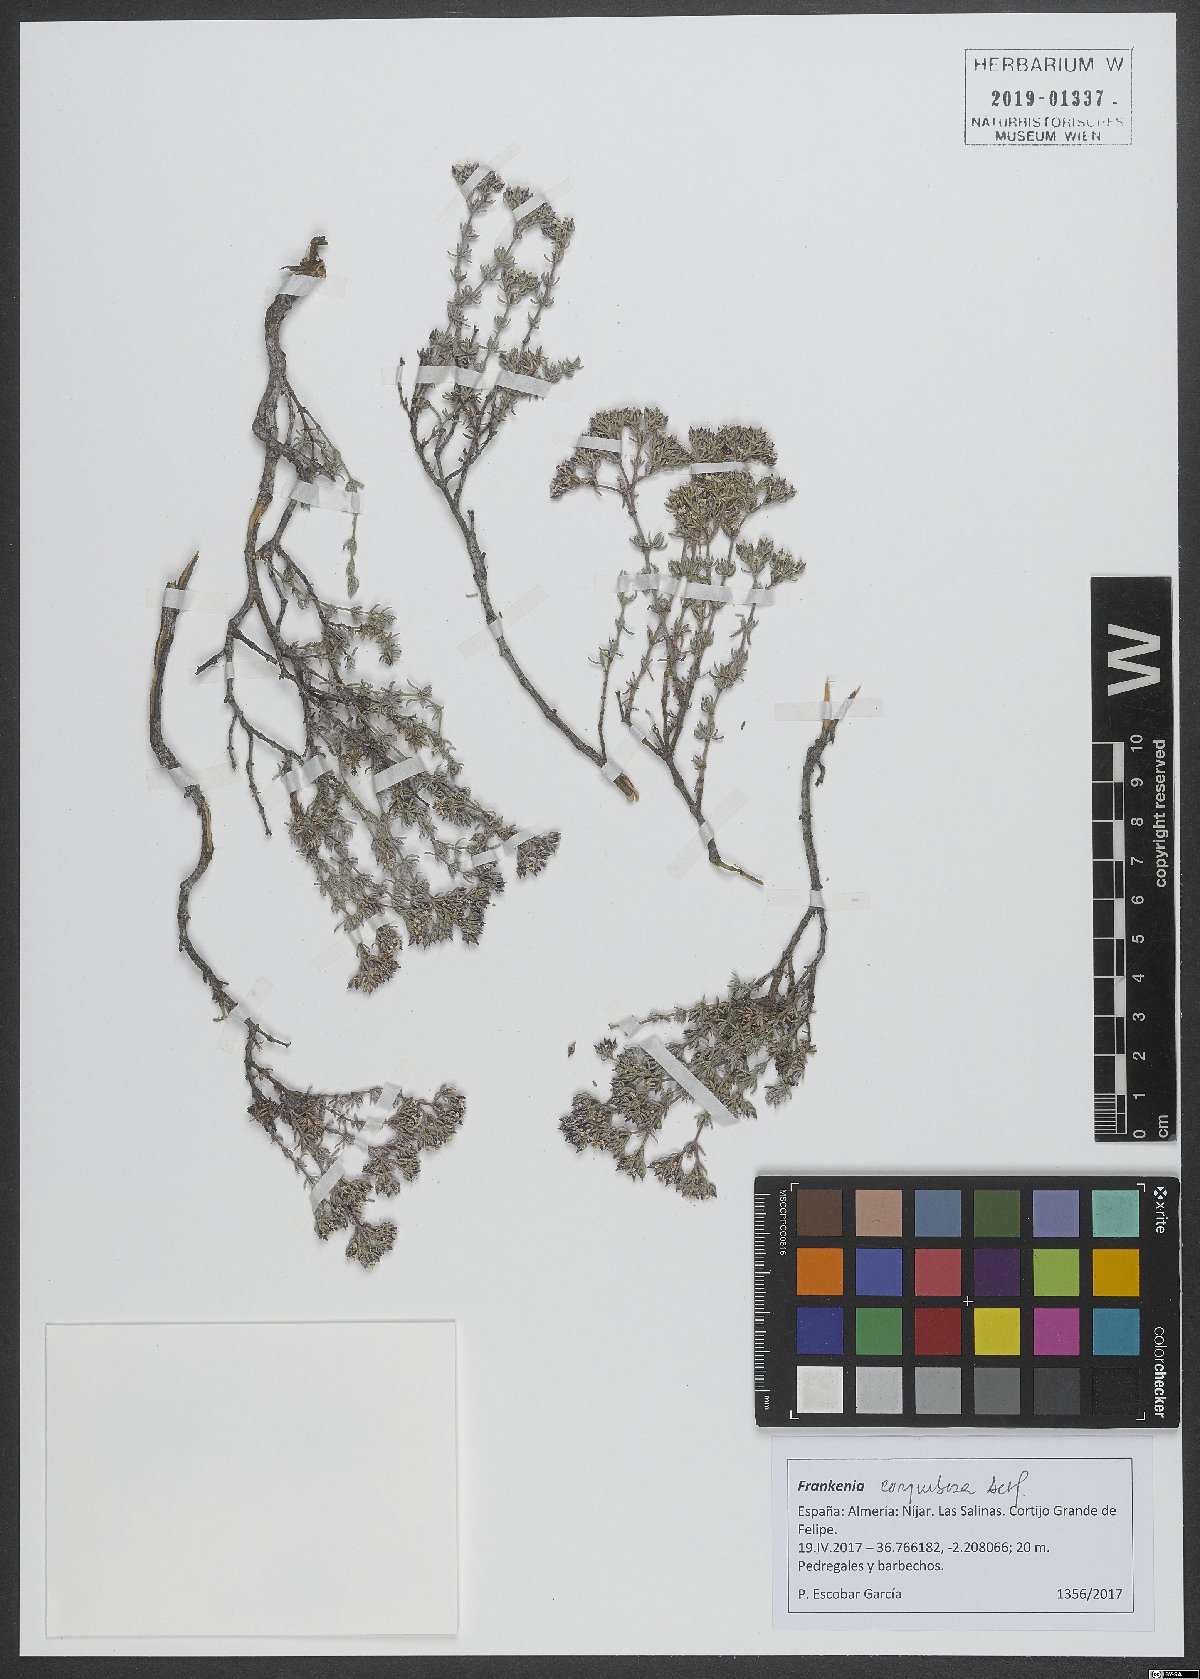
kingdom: Plantae
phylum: Tracheophyta
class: Magnoliopsida
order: Caryophyllales
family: Frankeniaceae
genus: Frankenia
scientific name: Frankenia corymbosa
